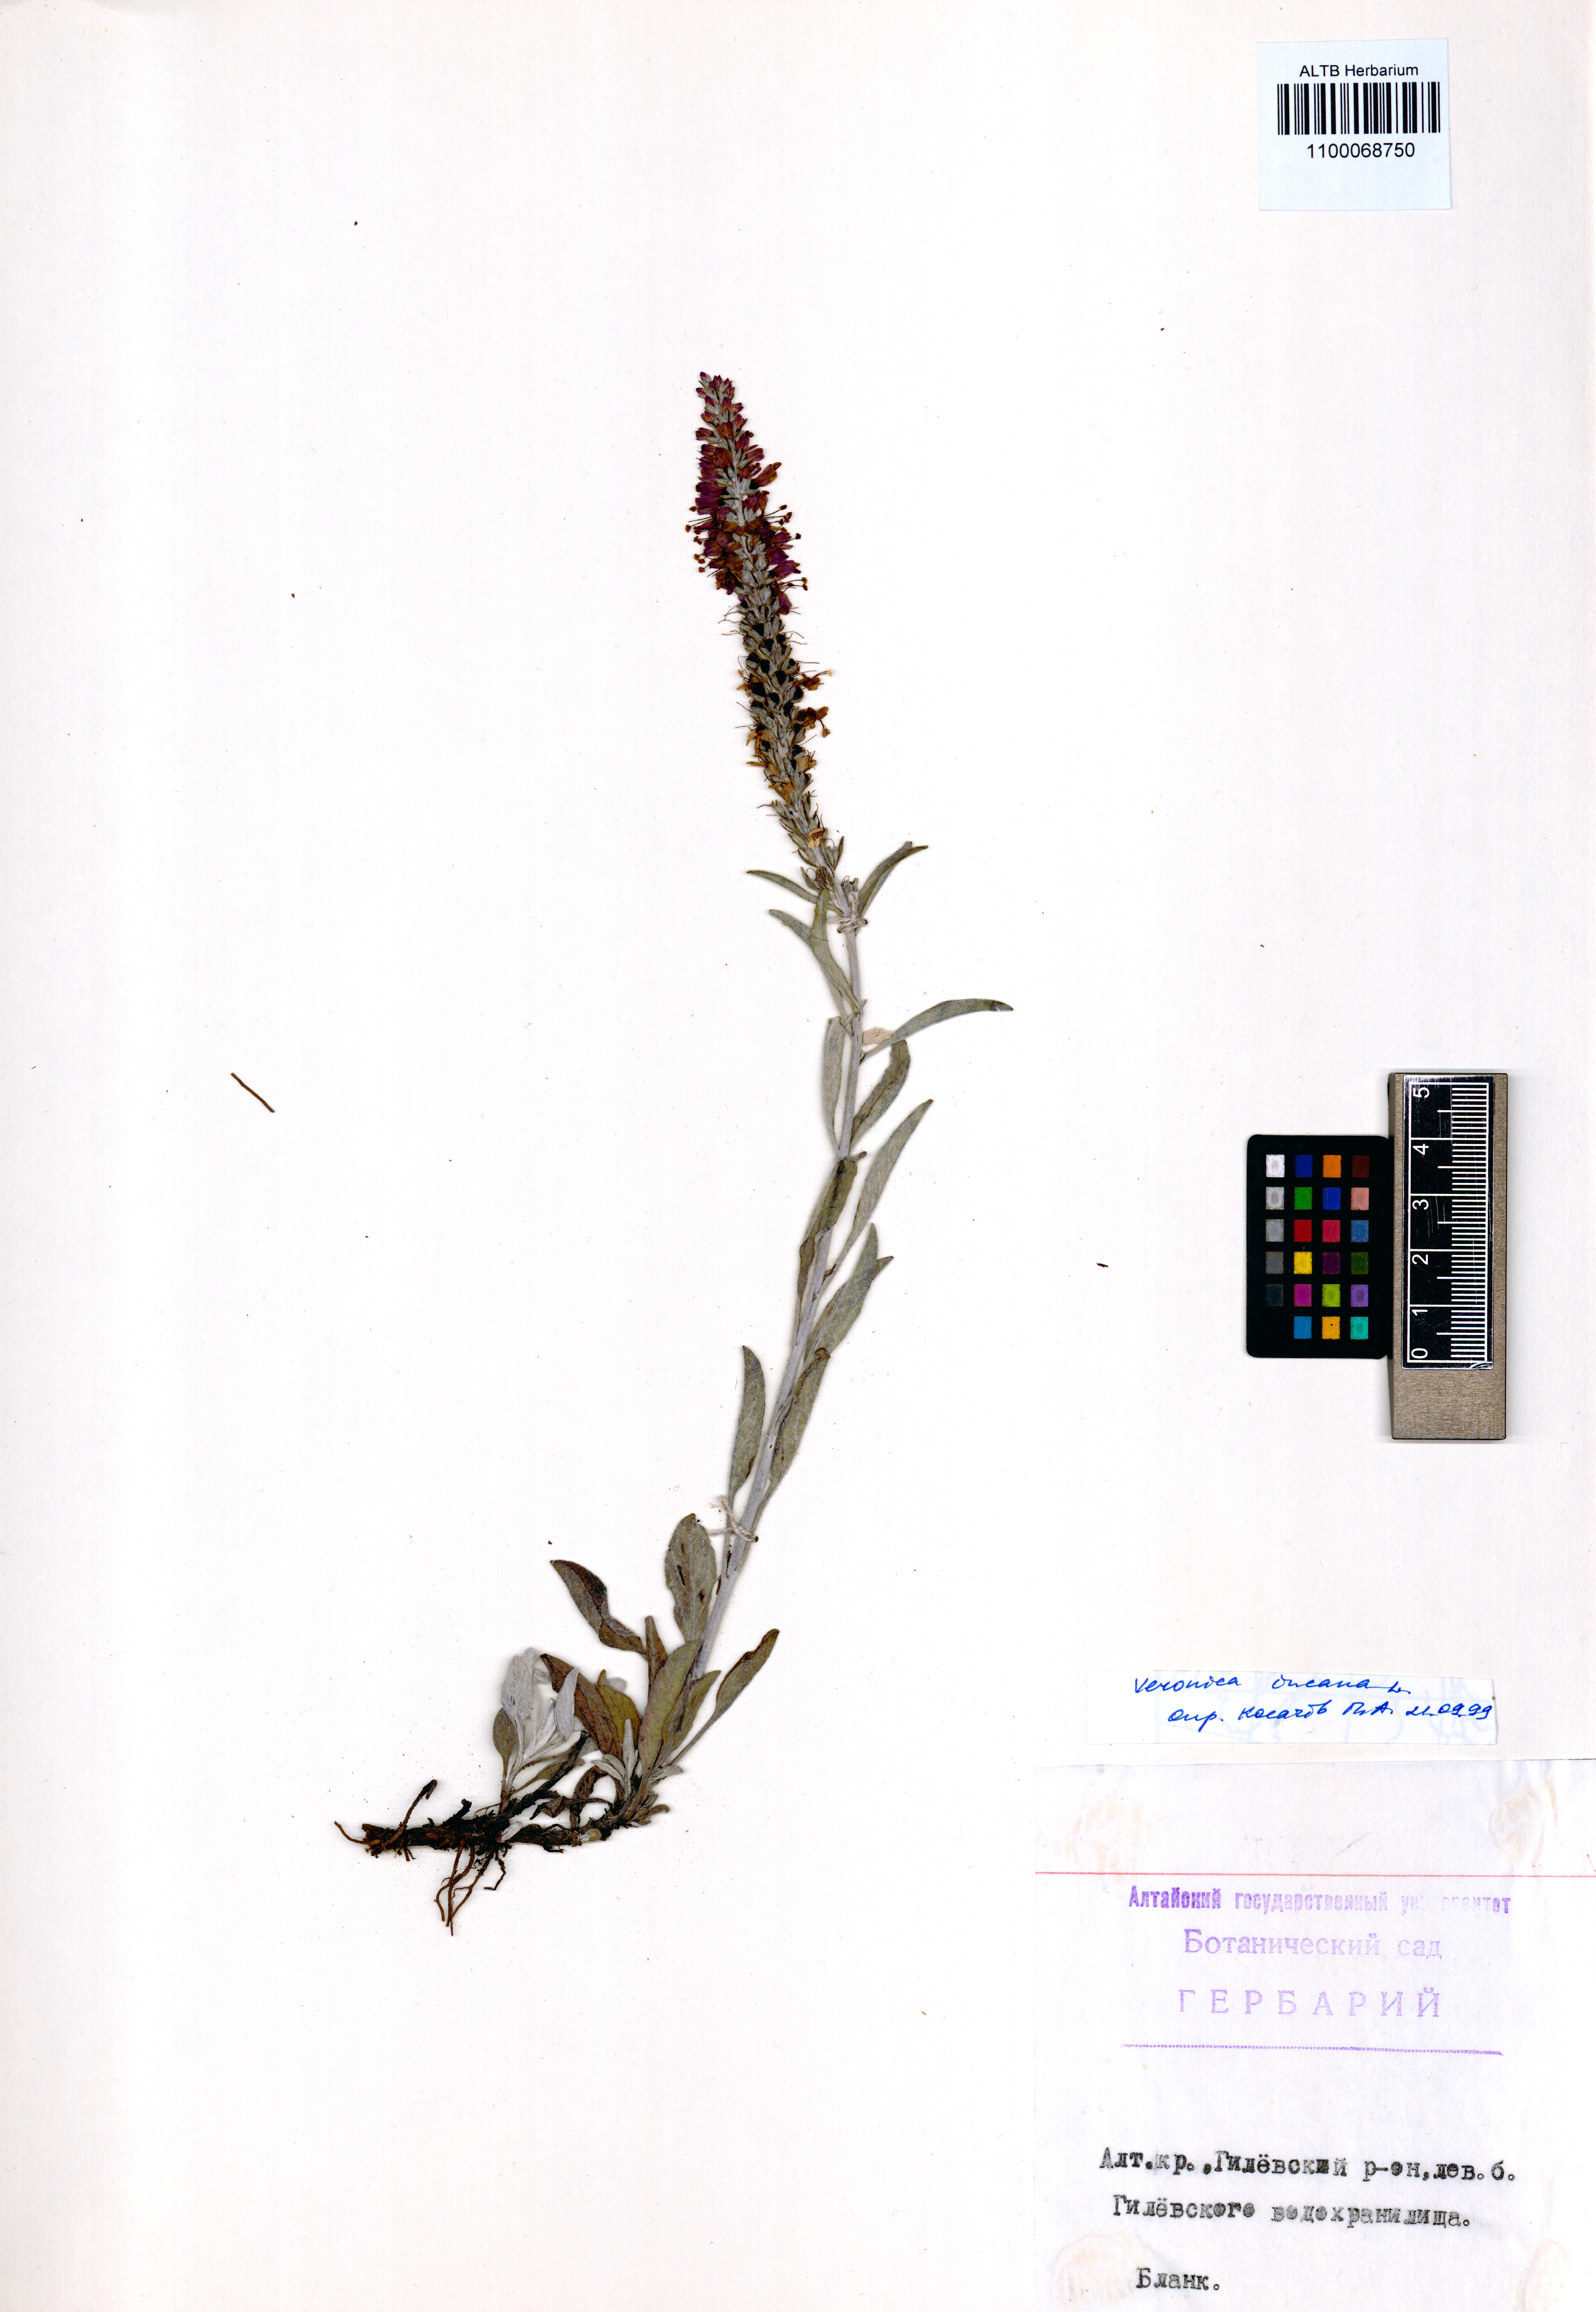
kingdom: Plantae
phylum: Tracheophyta
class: Magnoliopsida
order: Lamiales
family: Plantaginaceae
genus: Veronica
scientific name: Veronica incana
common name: Silver speedwell
